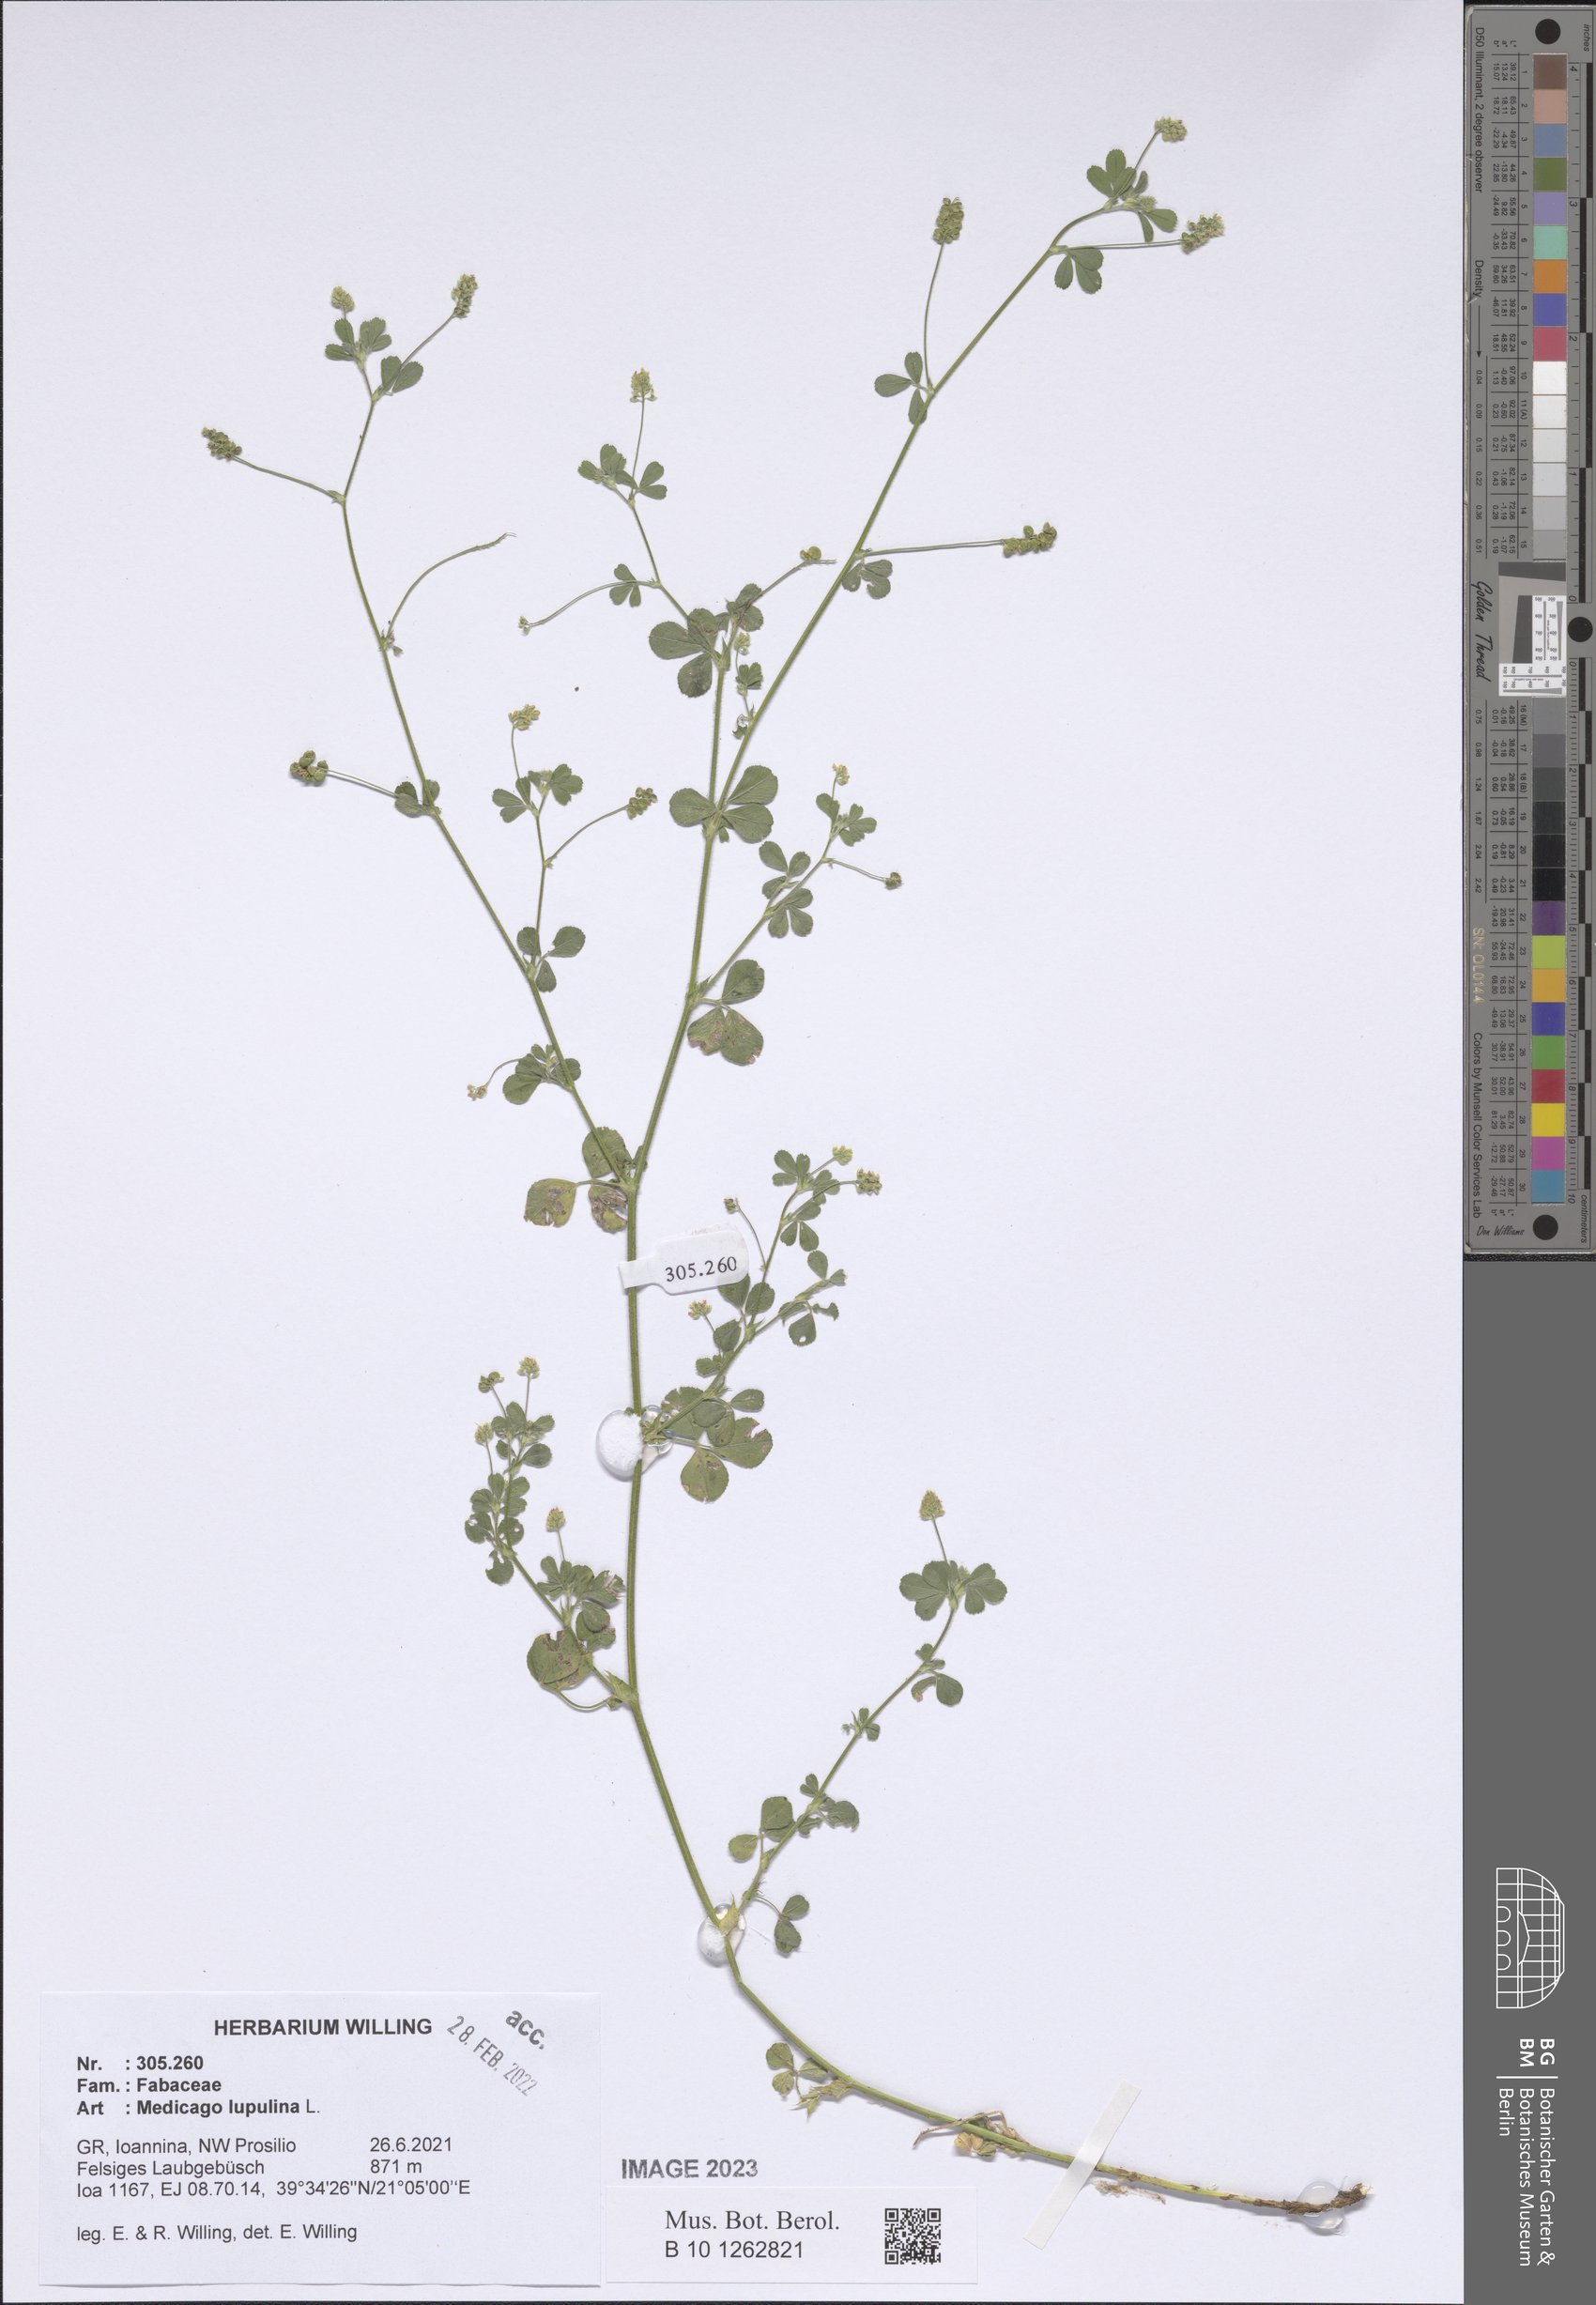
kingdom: Plantae
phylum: Tracheophyta
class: Magnoliopsida
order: Fabales
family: Fabaceae
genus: Medicago
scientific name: Medicago lupulina
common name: Black medick
